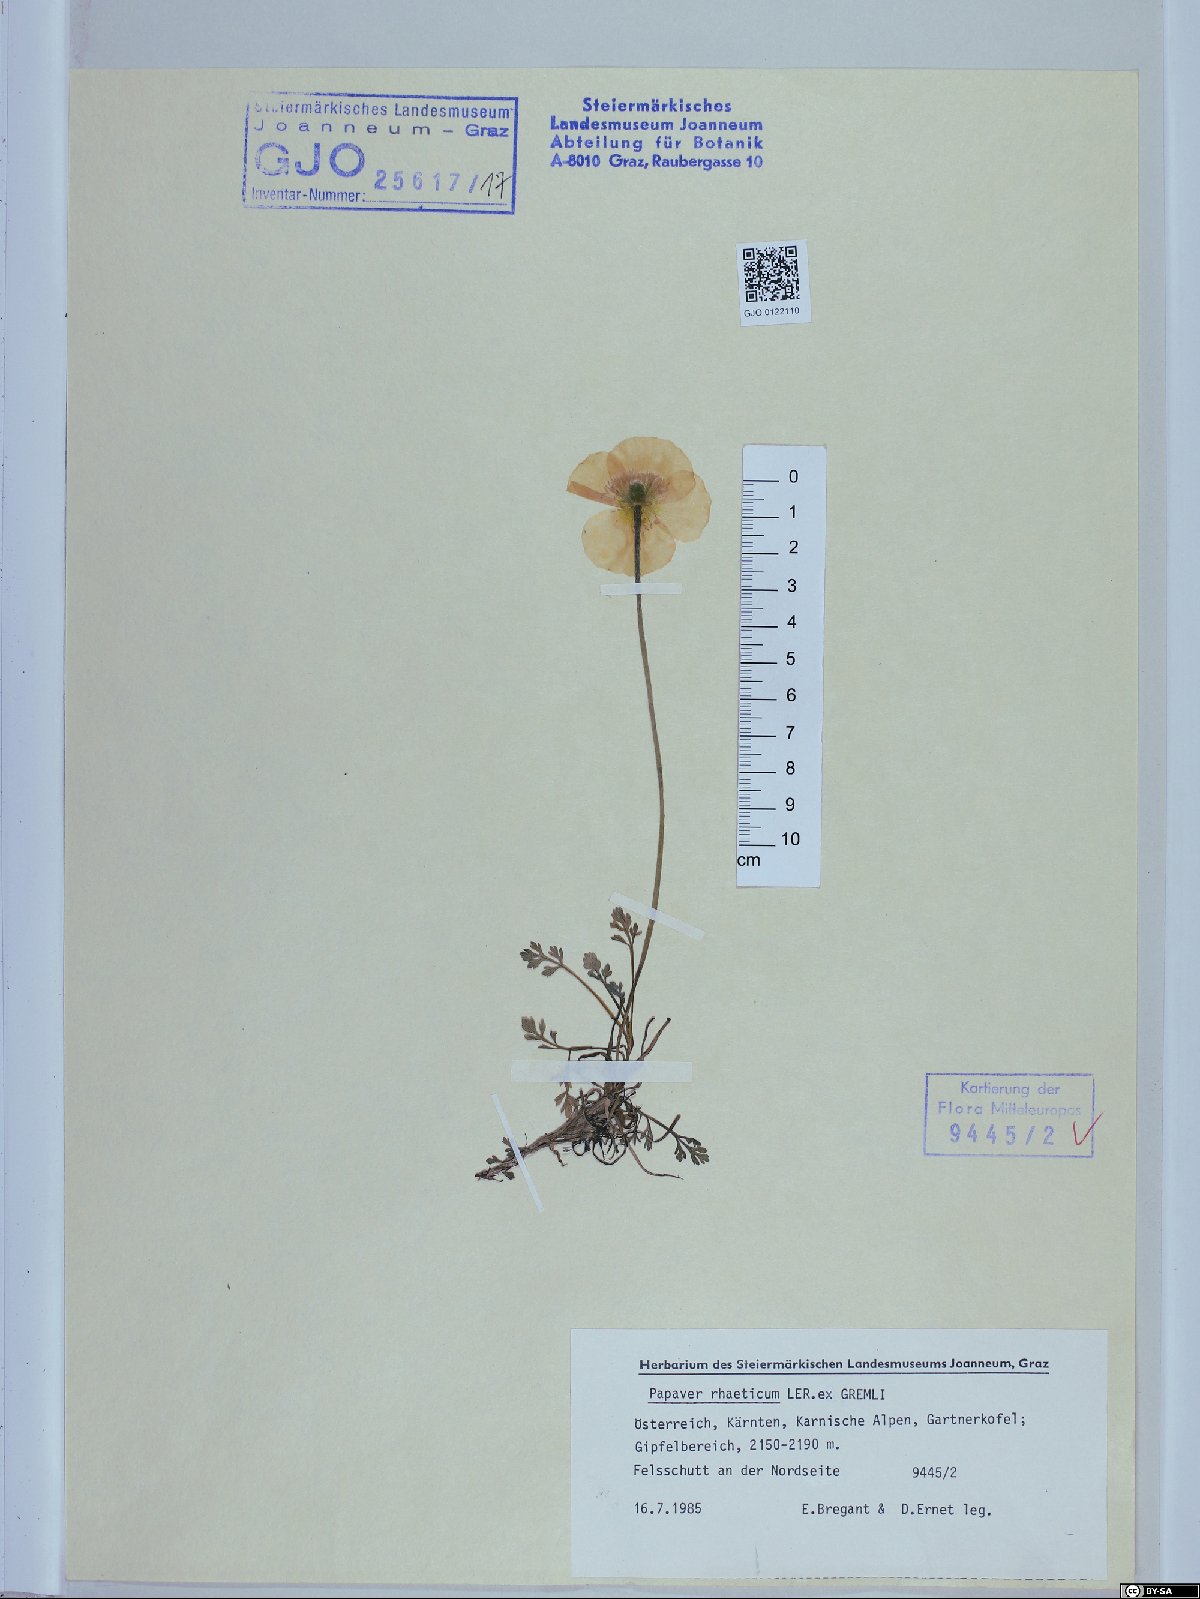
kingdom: Plantae
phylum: Tracheophyta
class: Magnoliopsida
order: Ranunculales
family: Papaveraceae
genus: Papaver
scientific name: Papaver alpinum
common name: Austrian poppy
